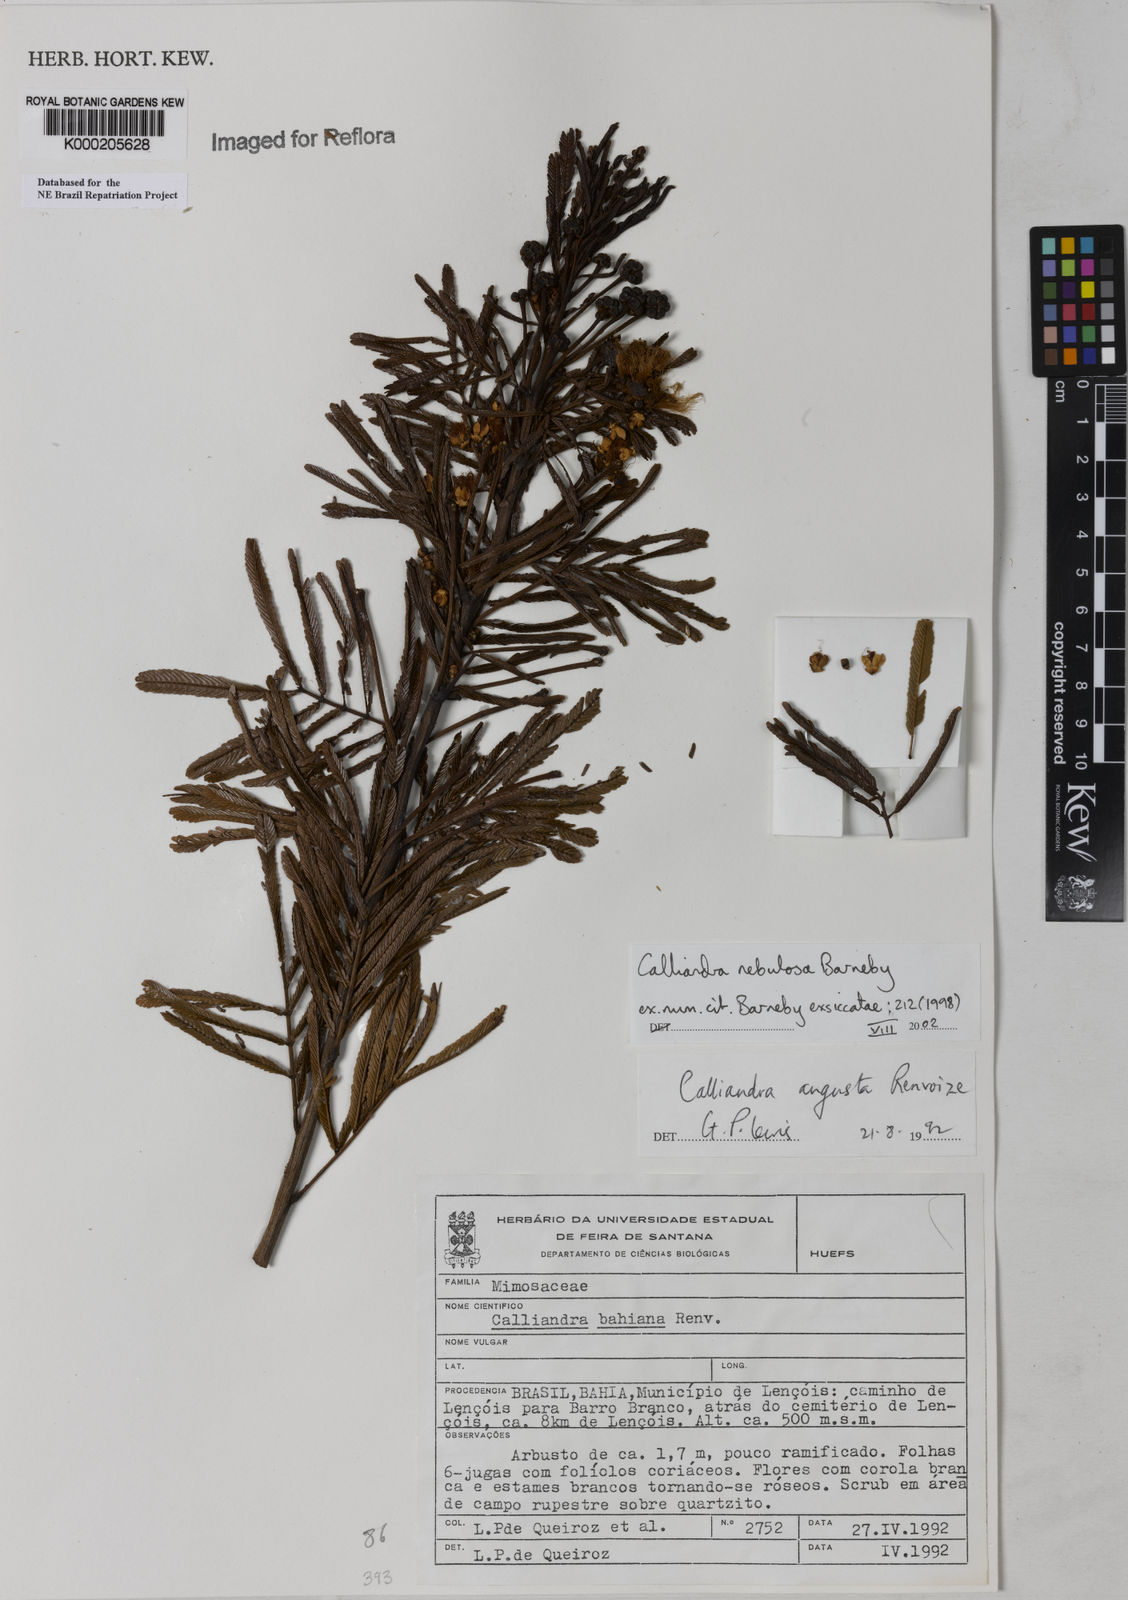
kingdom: Plantae
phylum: Tracheophyta
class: Magnoliopsida
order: Fabales
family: Fabaceae
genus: Calliandra
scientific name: Calliandra nebulosa
